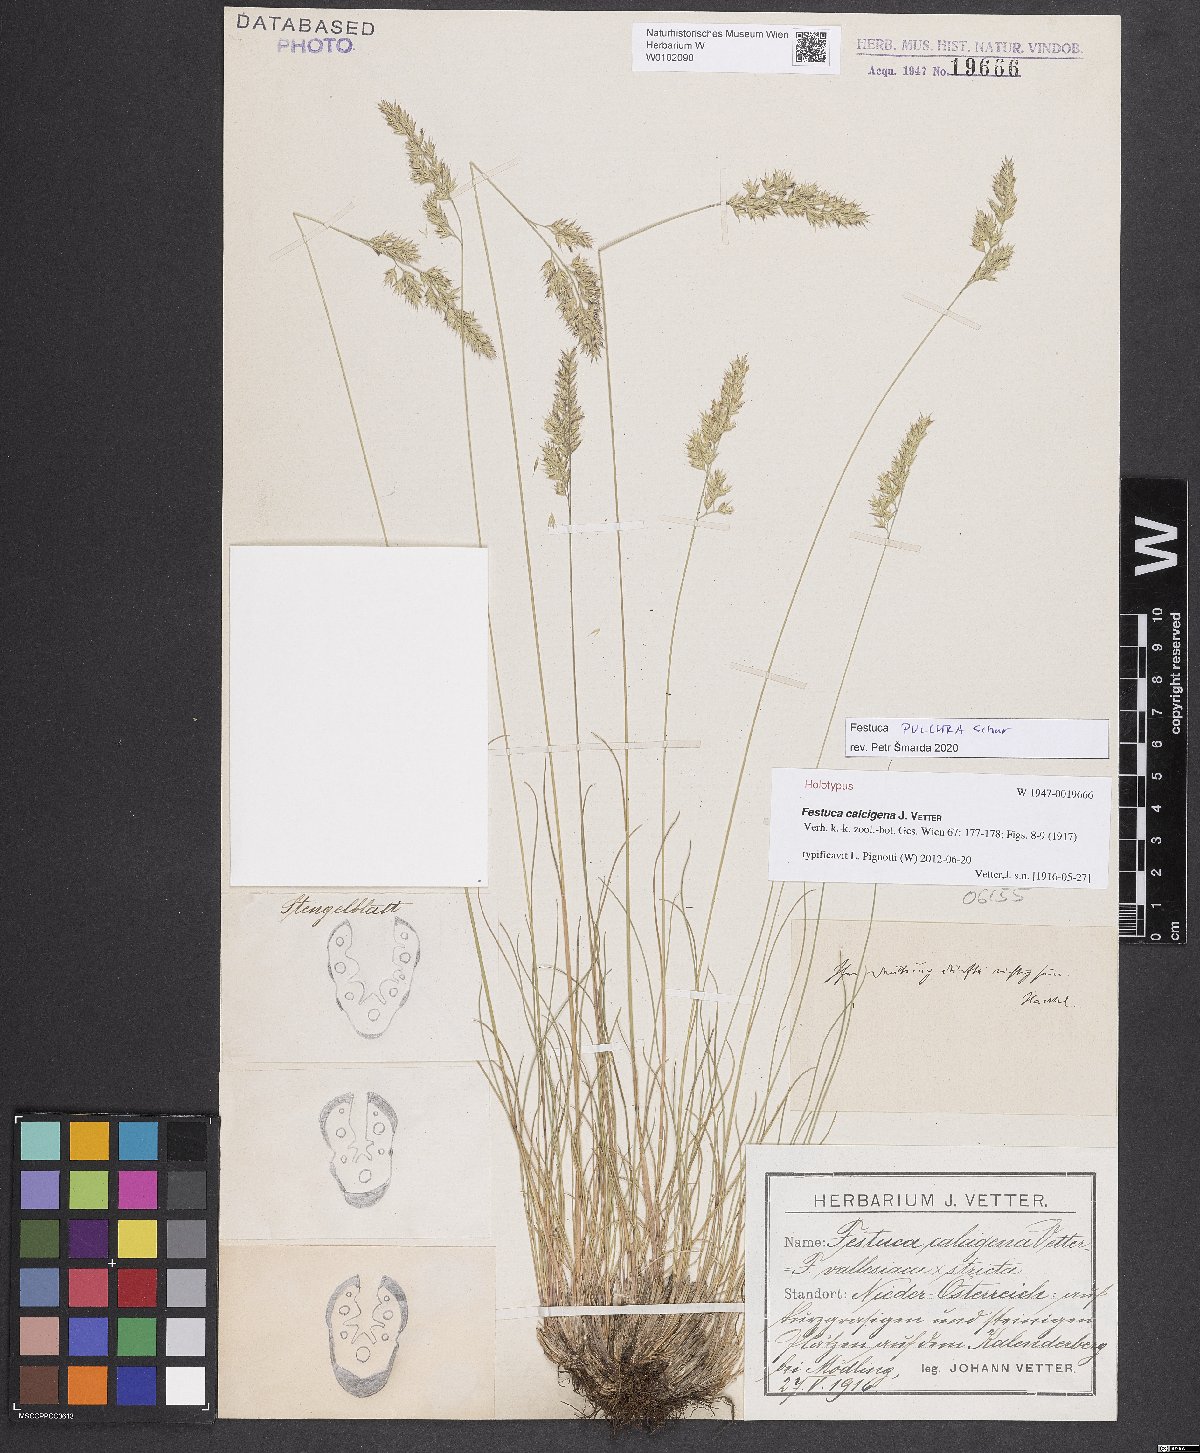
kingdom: Plantae
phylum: Tracheophyta
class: Liliopsida
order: Poales
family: Poaceae
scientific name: Poaceae
